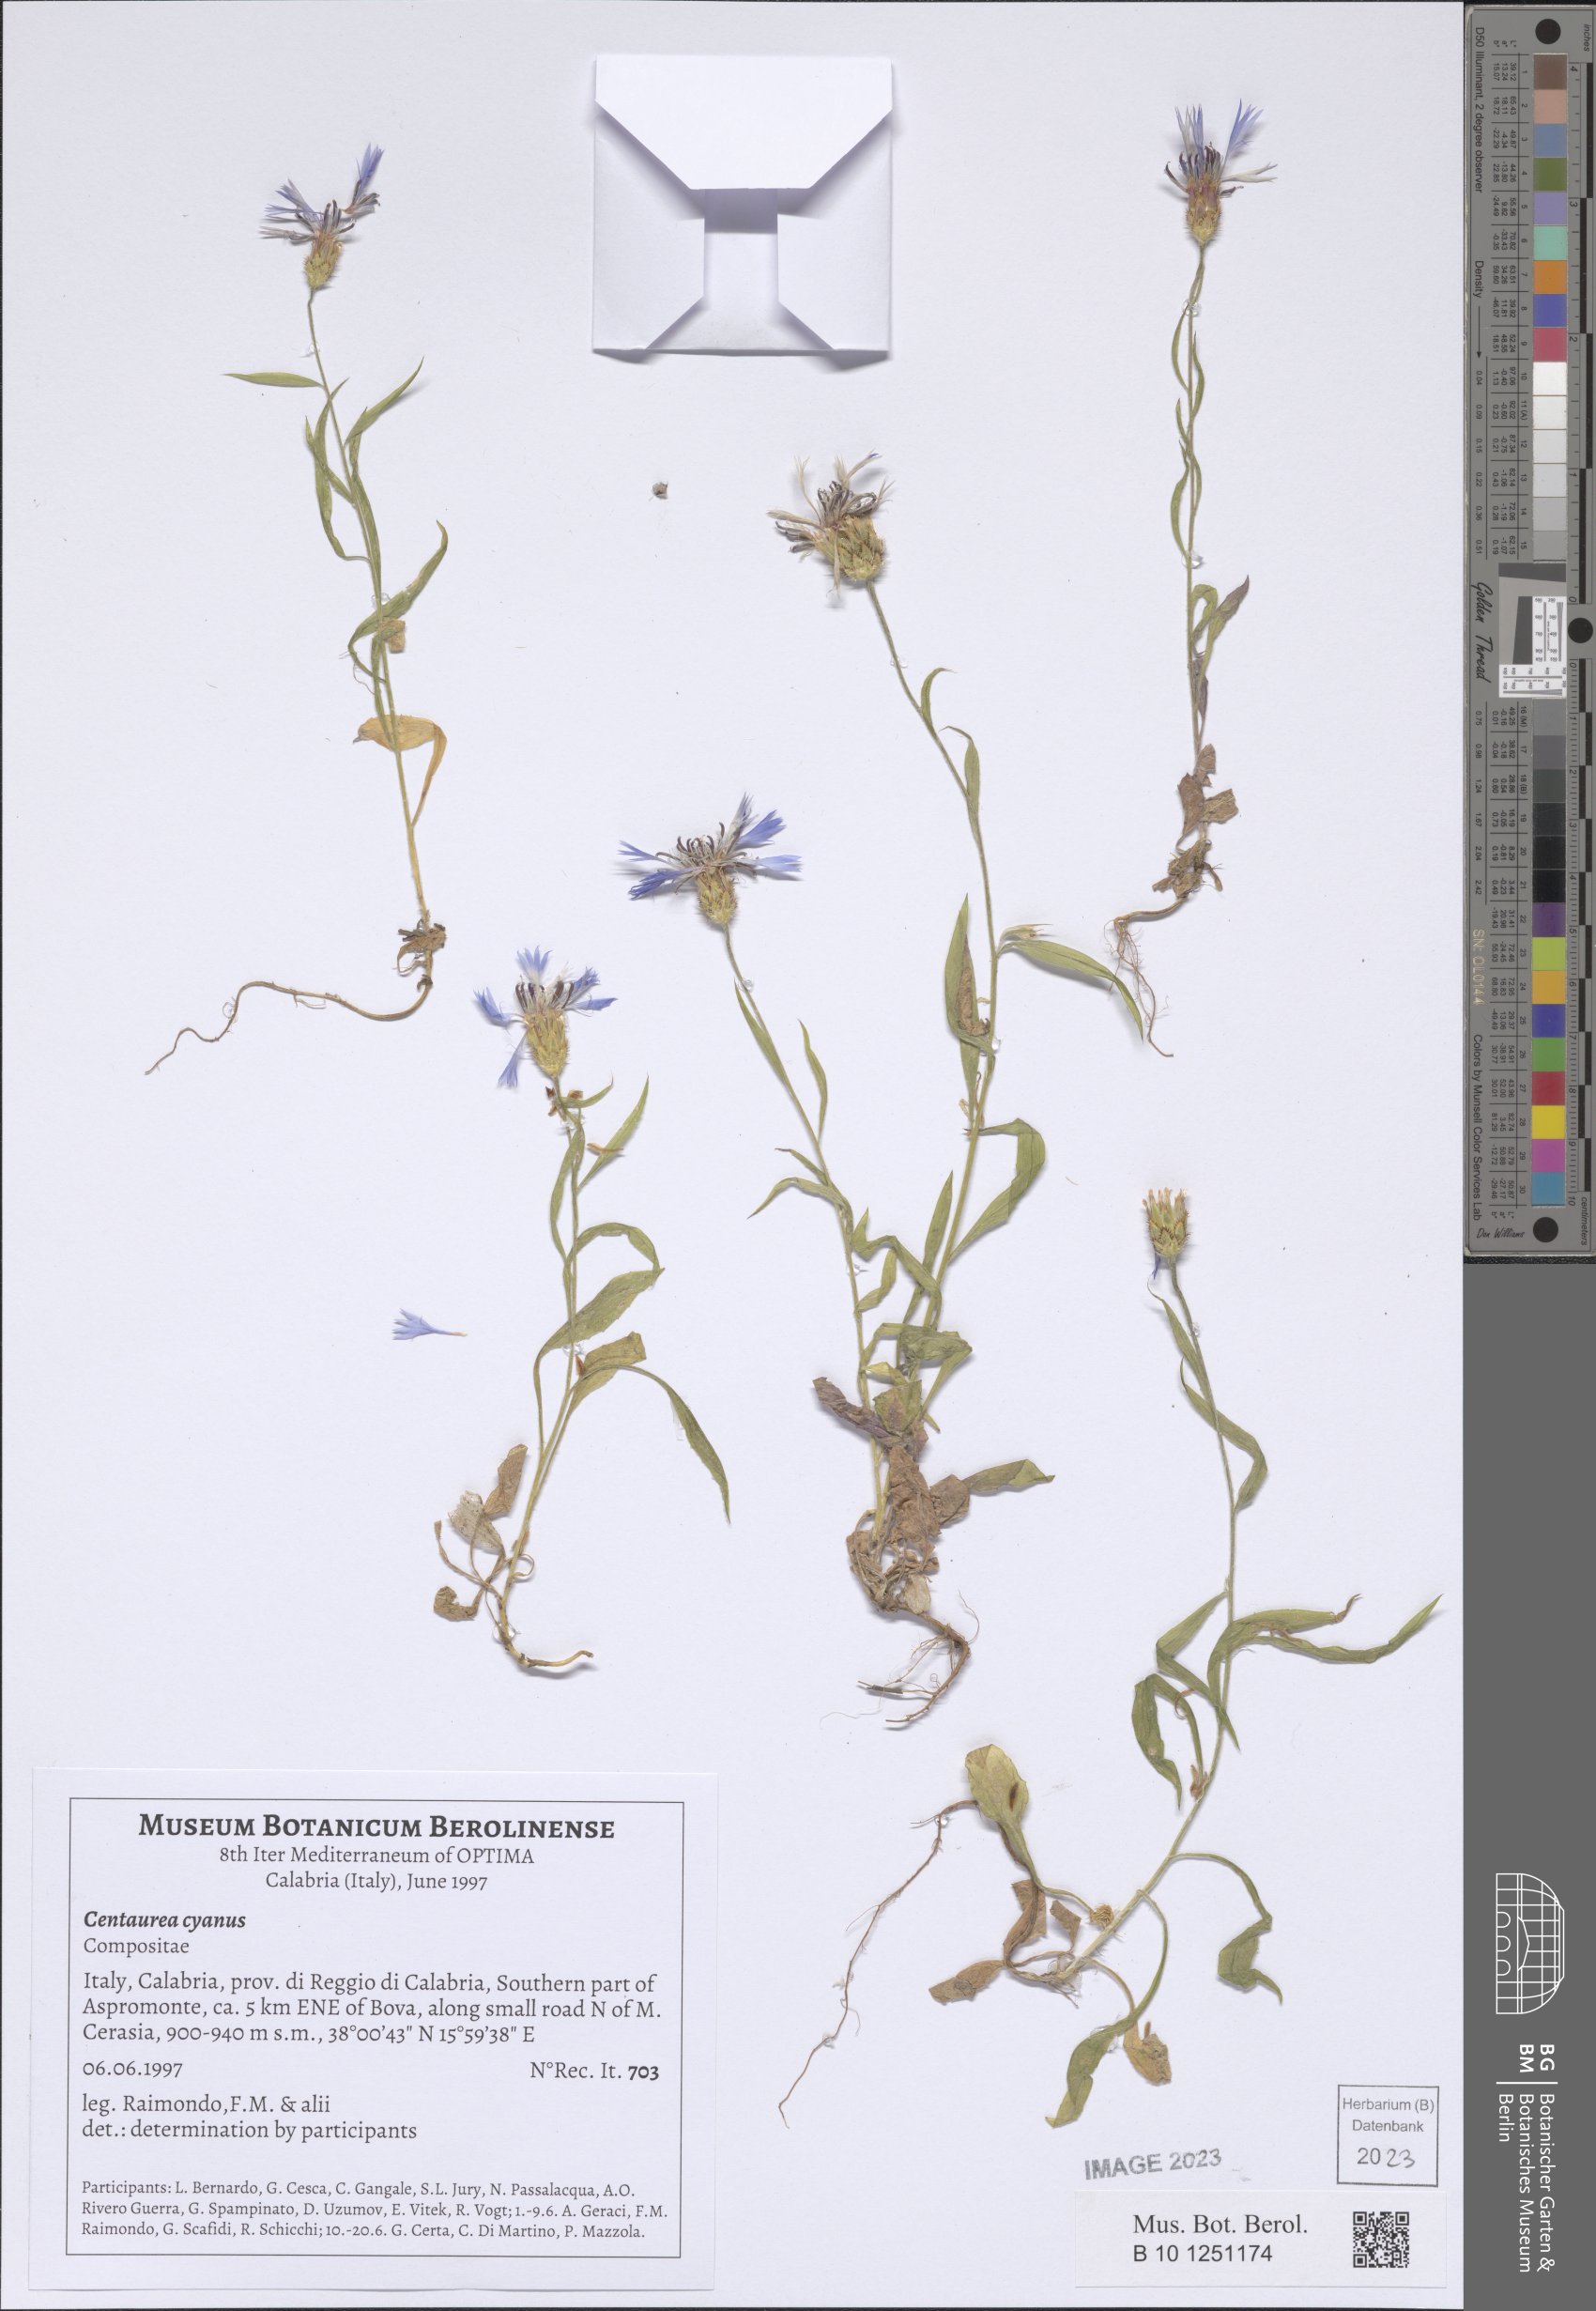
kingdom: Plantae
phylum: Tracheophyta
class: Magnoliopsida
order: Asterales
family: Asteraceae
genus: Centaurea
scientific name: Centaurea cyanus
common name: Cornflower
